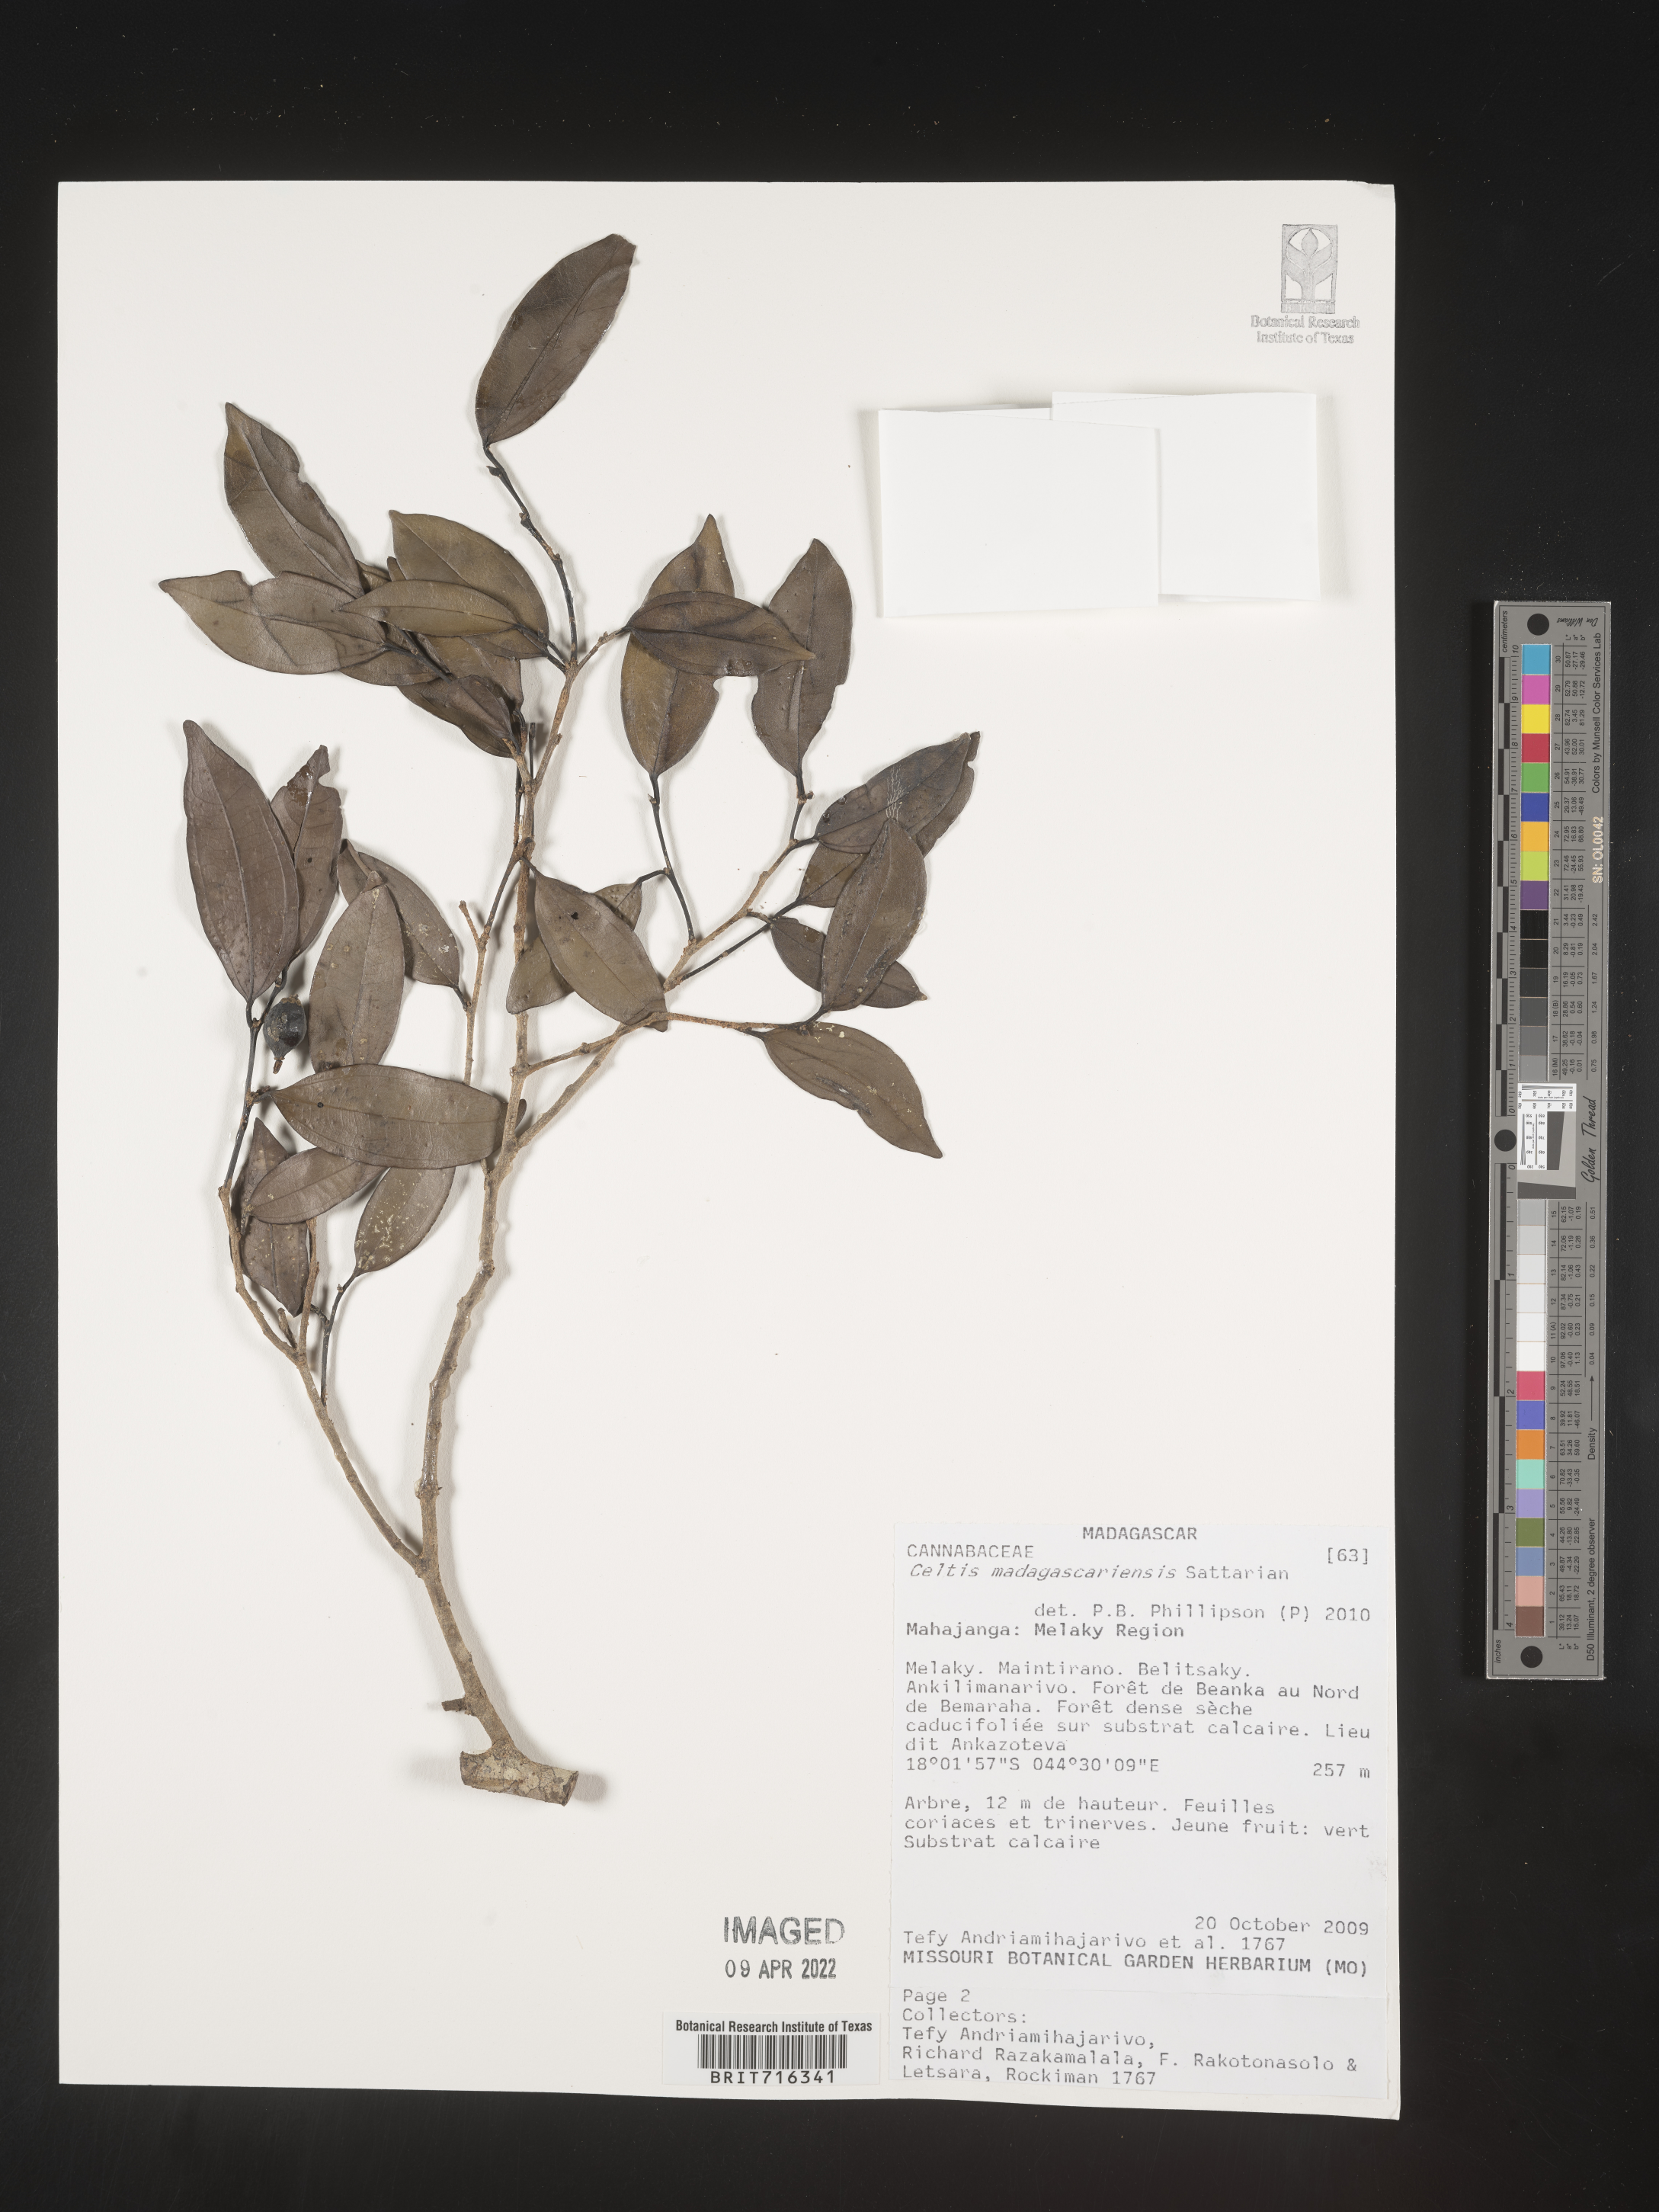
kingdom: Plantae
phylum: Tracheophyta
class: Magnoliopsida
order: Rosales
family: Cannabaceae
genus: Celtis
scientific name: Celtis
